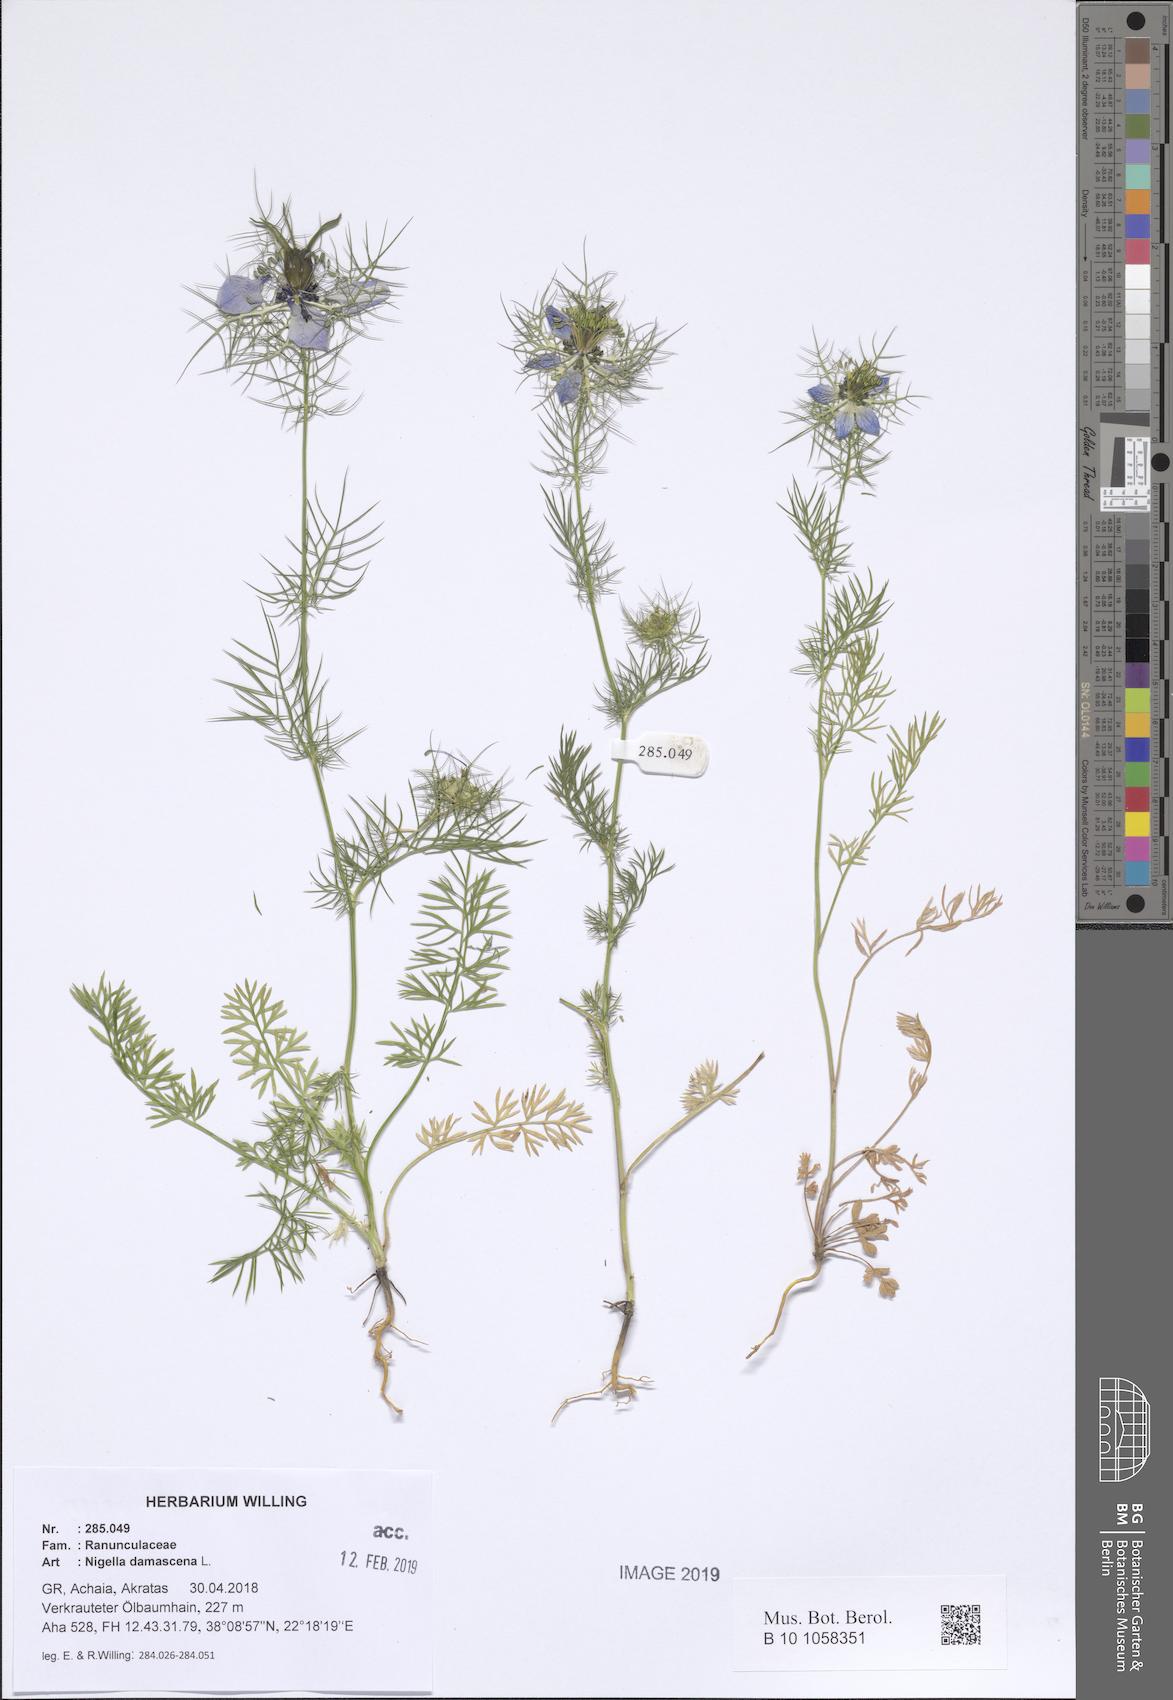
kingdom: Plantae
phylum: Tracheophyta
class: Magnoliopsida
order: Ranunculales
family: Ranunculaceae
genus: Nigella
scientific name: Nigella damascena
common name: Love-in-a-mist
